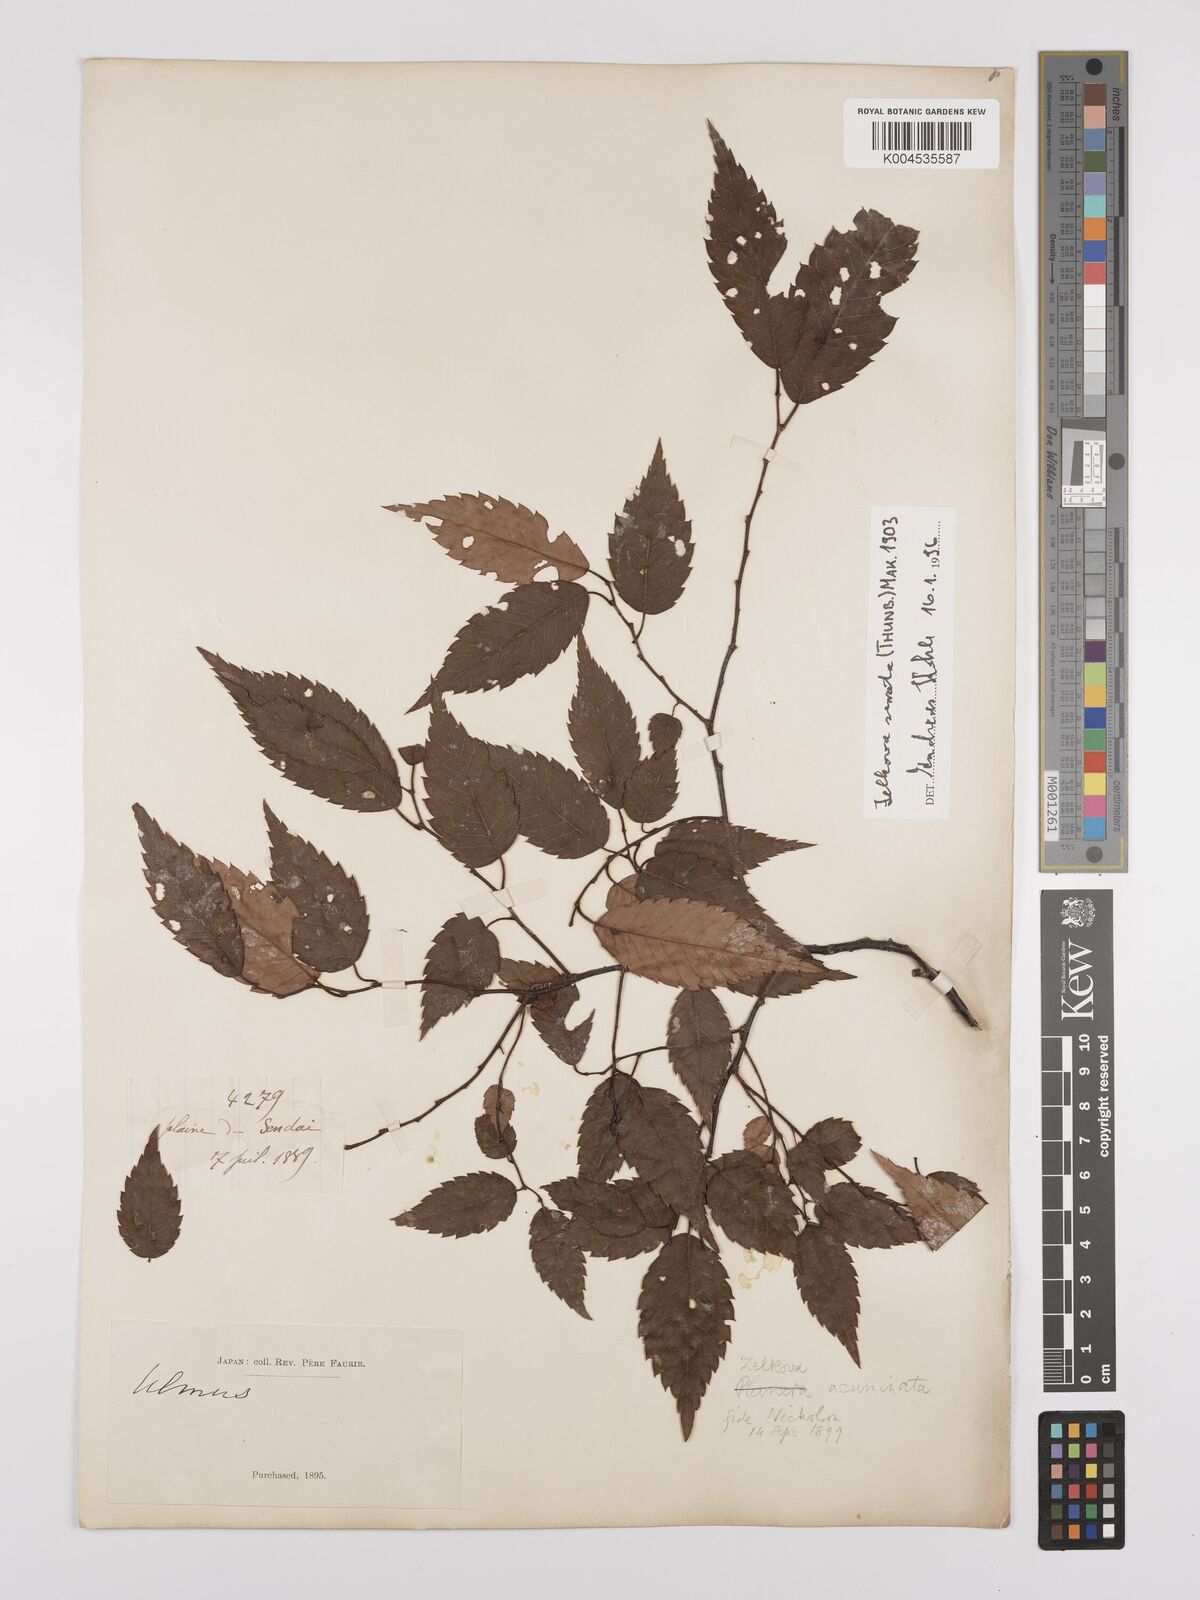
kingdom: Plantae
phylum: Tracheophyta
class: Magnoliopsida
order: Rosales
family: Ulmaceae
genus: Zelkova
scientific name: Zelkova serrata
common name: Japanese zelkova
